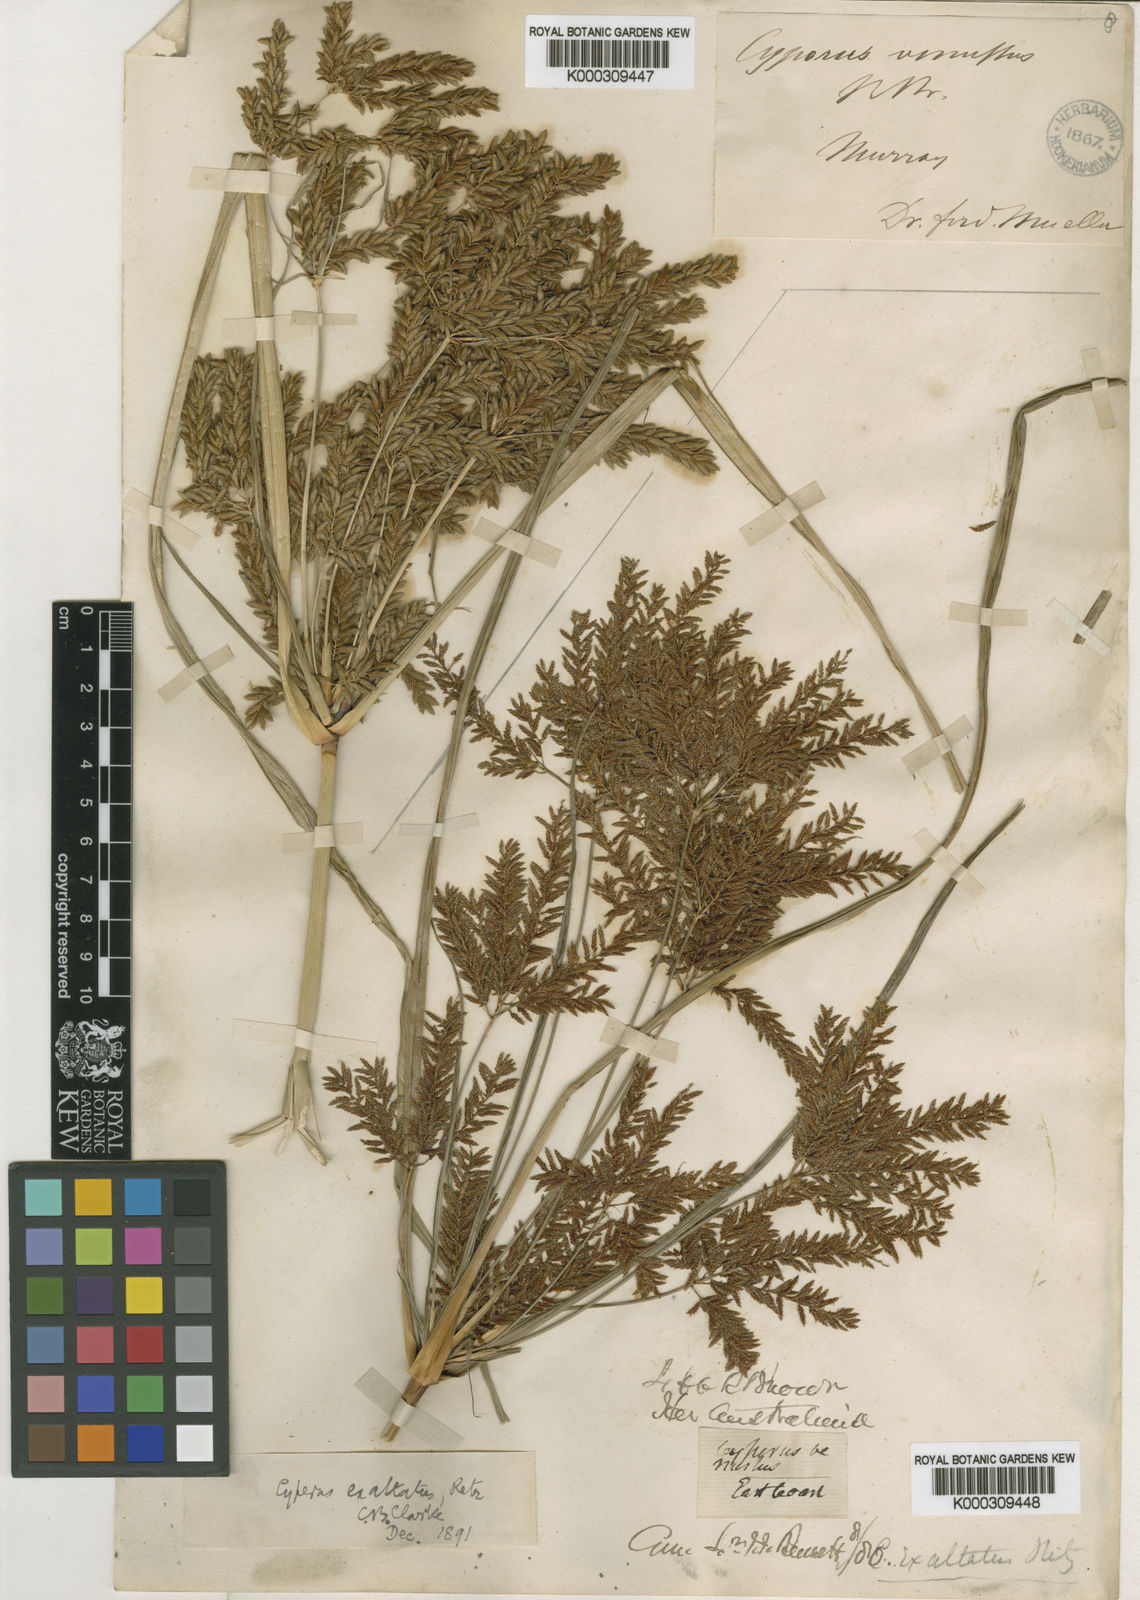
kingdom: Plantae
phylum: Tracheophyta
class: Liliopsida
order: Poales
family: Cyperaceae
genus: Cyperus
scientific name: Cyperus exaltatus
